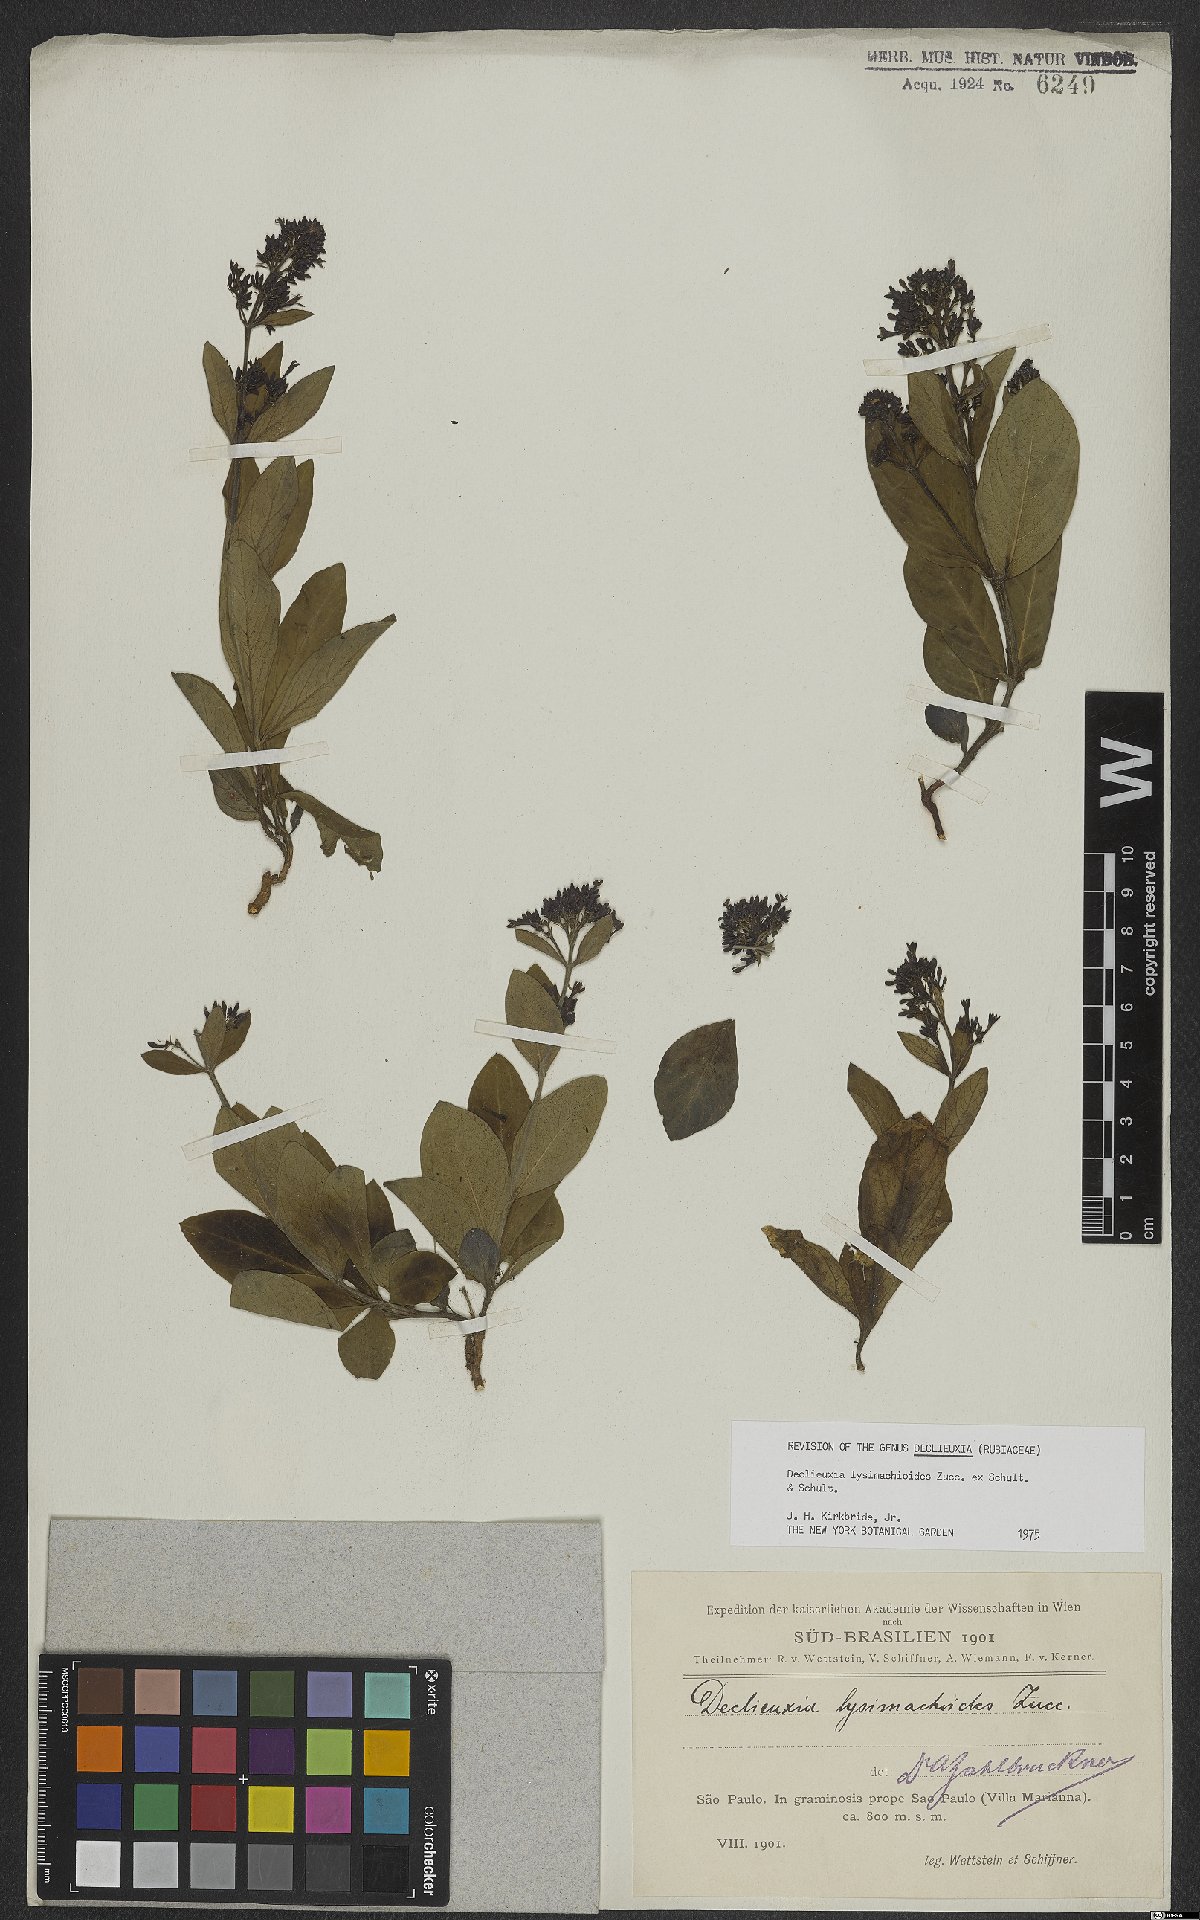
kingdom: Plantae
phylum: Tracheophyta
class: Magnoliopsida
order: Gentianales
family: Rubiaceae
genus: Declieuxia
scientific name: Declieuxia lysimachioides
